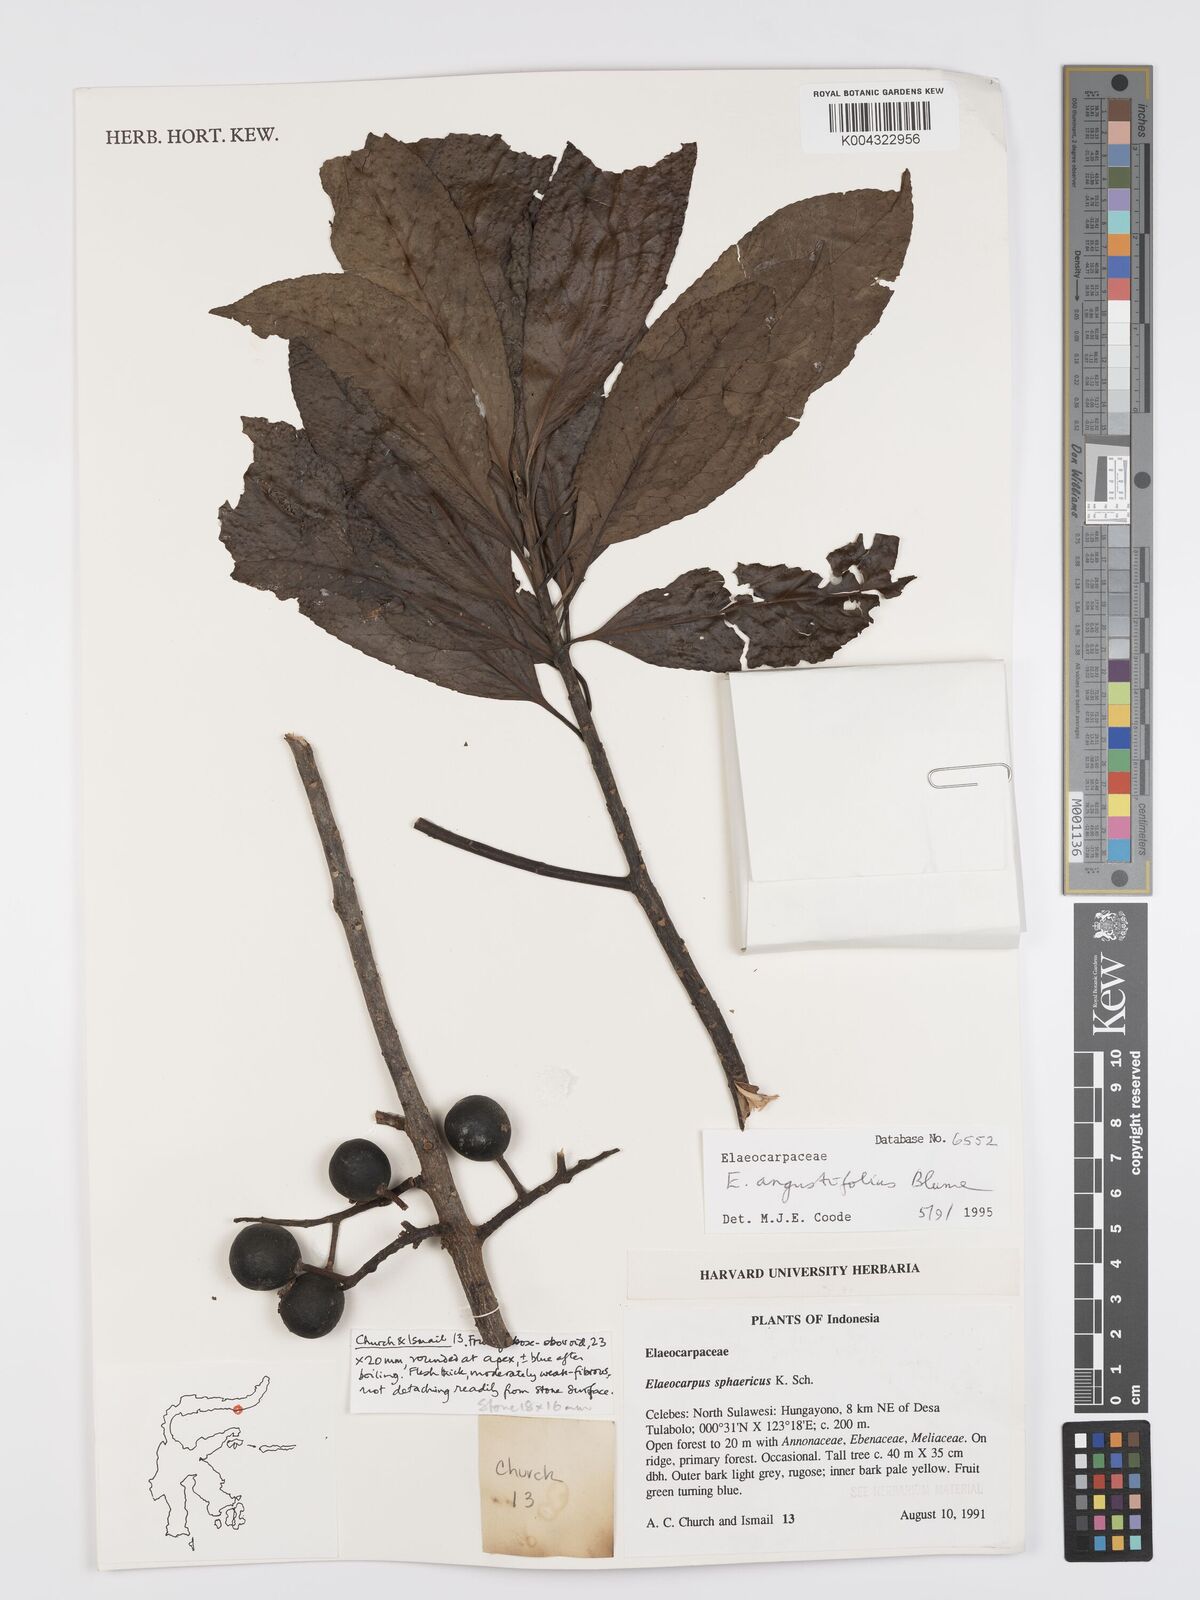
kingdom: Plantae
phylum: Tracheophyta
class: Magnoliopsida
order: Oxalidales
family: Elaeocarpaceae
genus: Elaeocarpus
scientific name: Elaeocarpus
